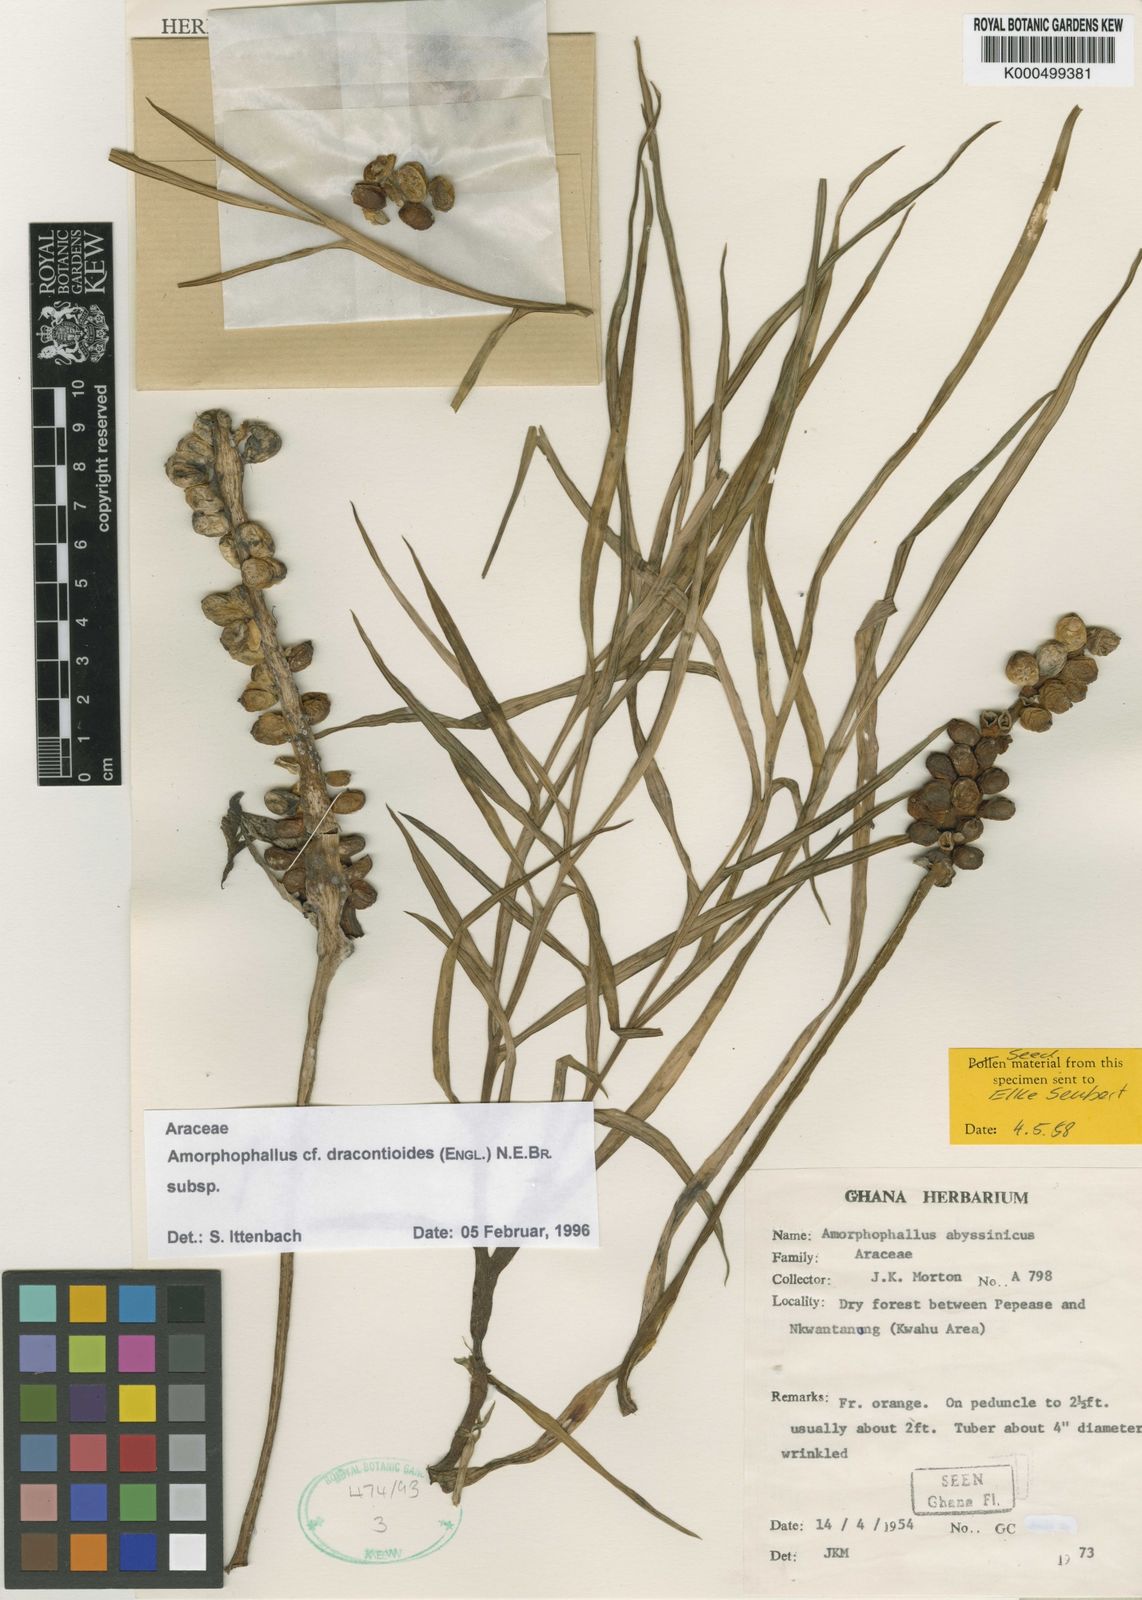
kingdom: Plantae
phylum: Tracheophyta
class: Liliopsida
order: Alismatales
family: Araceae
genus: Amorphophallus
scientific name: Amorphophallus dracontioides
